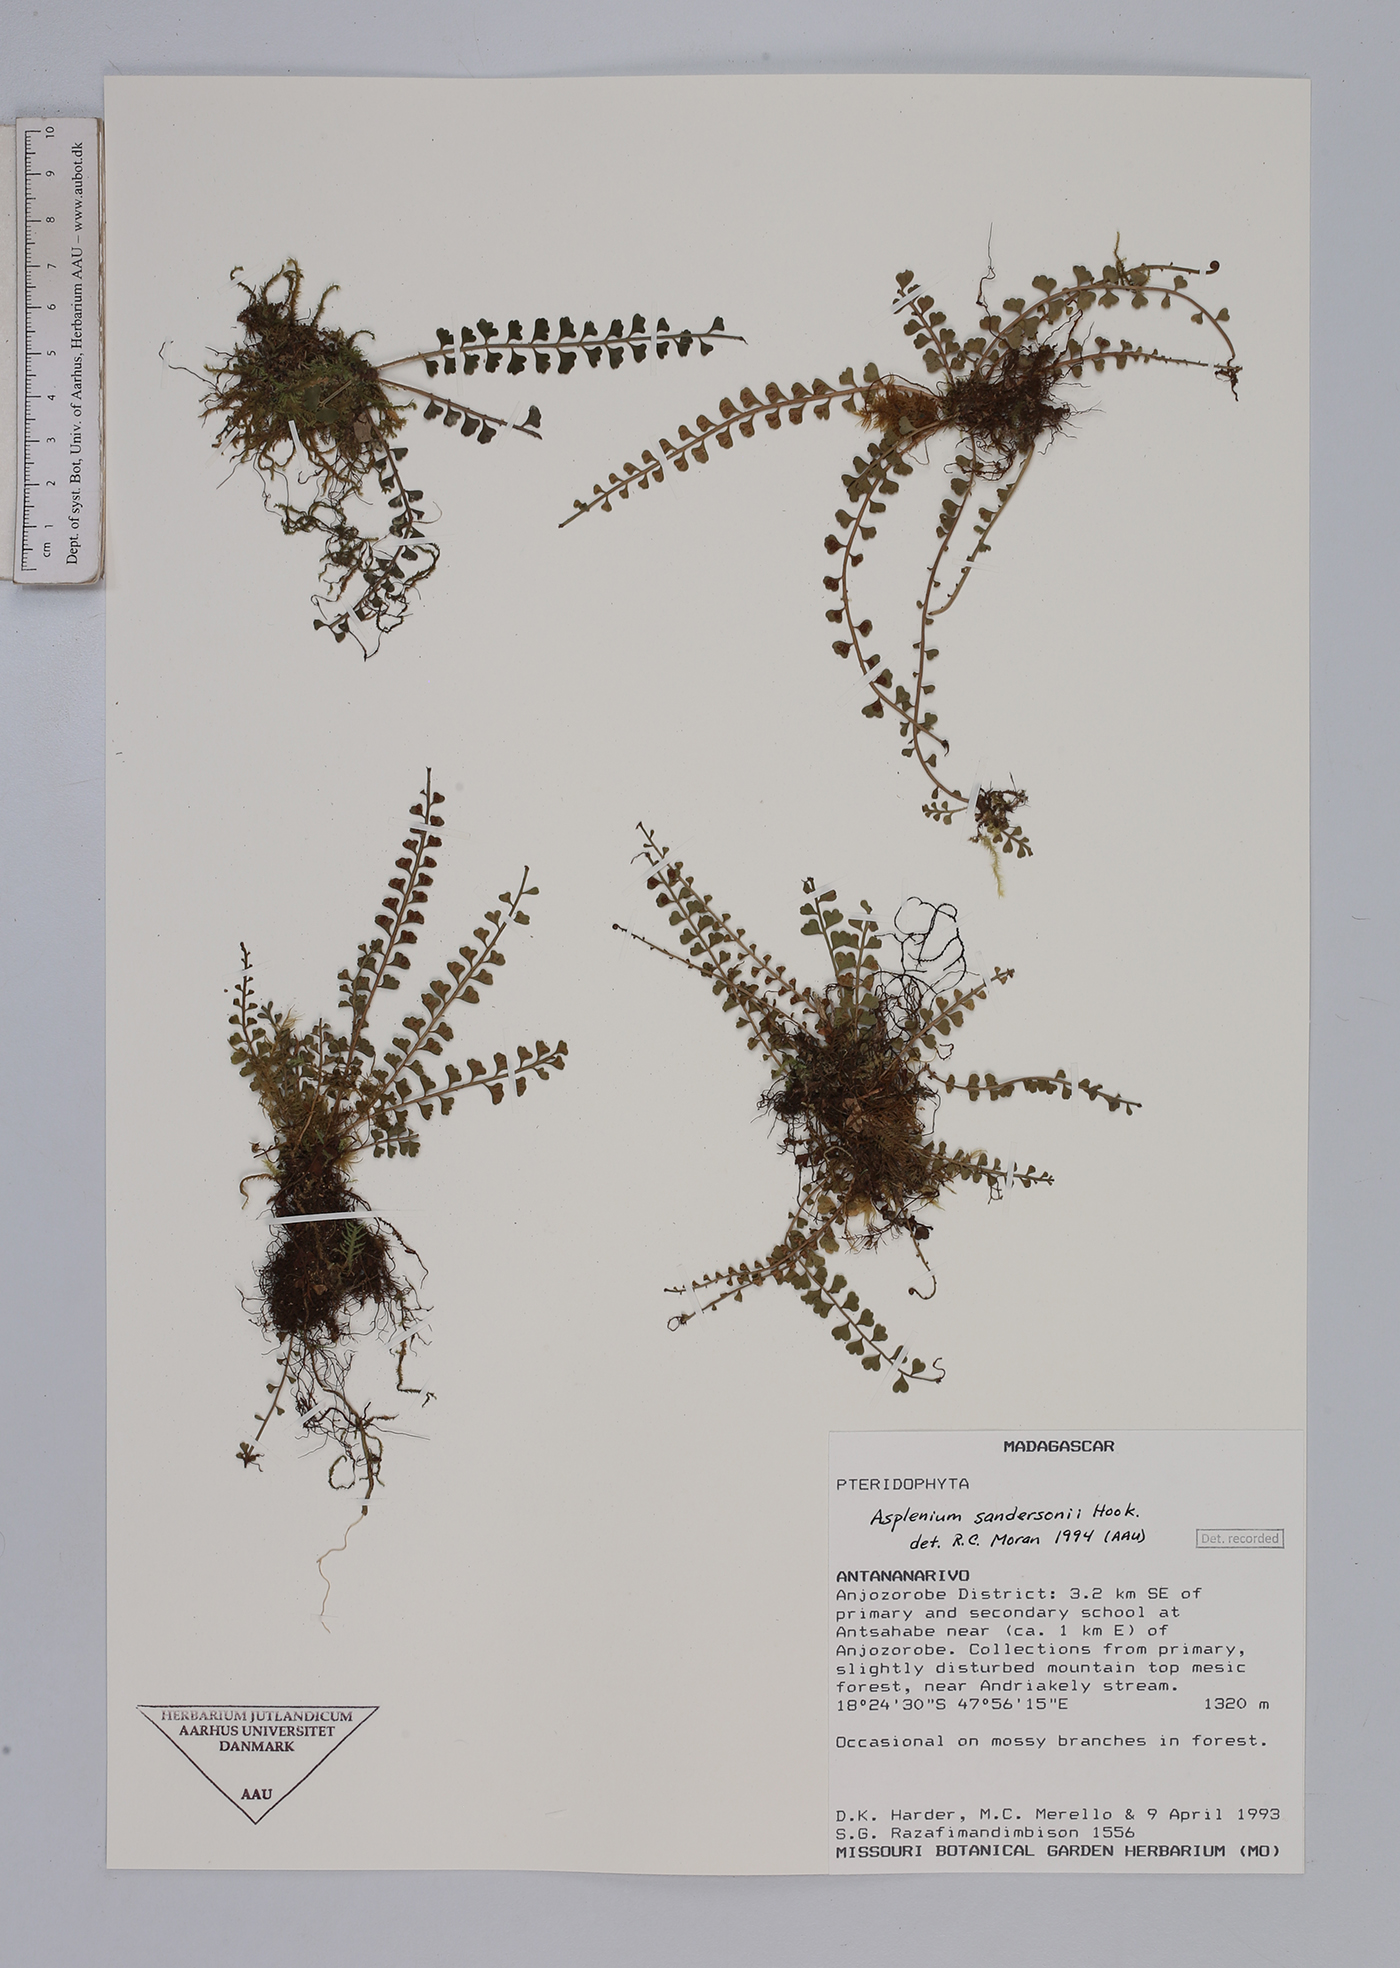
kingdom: Plantae
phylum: Tracheophyta
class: Polypodiopsida
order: Polypodiales
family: Aspleniaceae
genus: Asplenium
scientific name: Asplenium sandersonii
